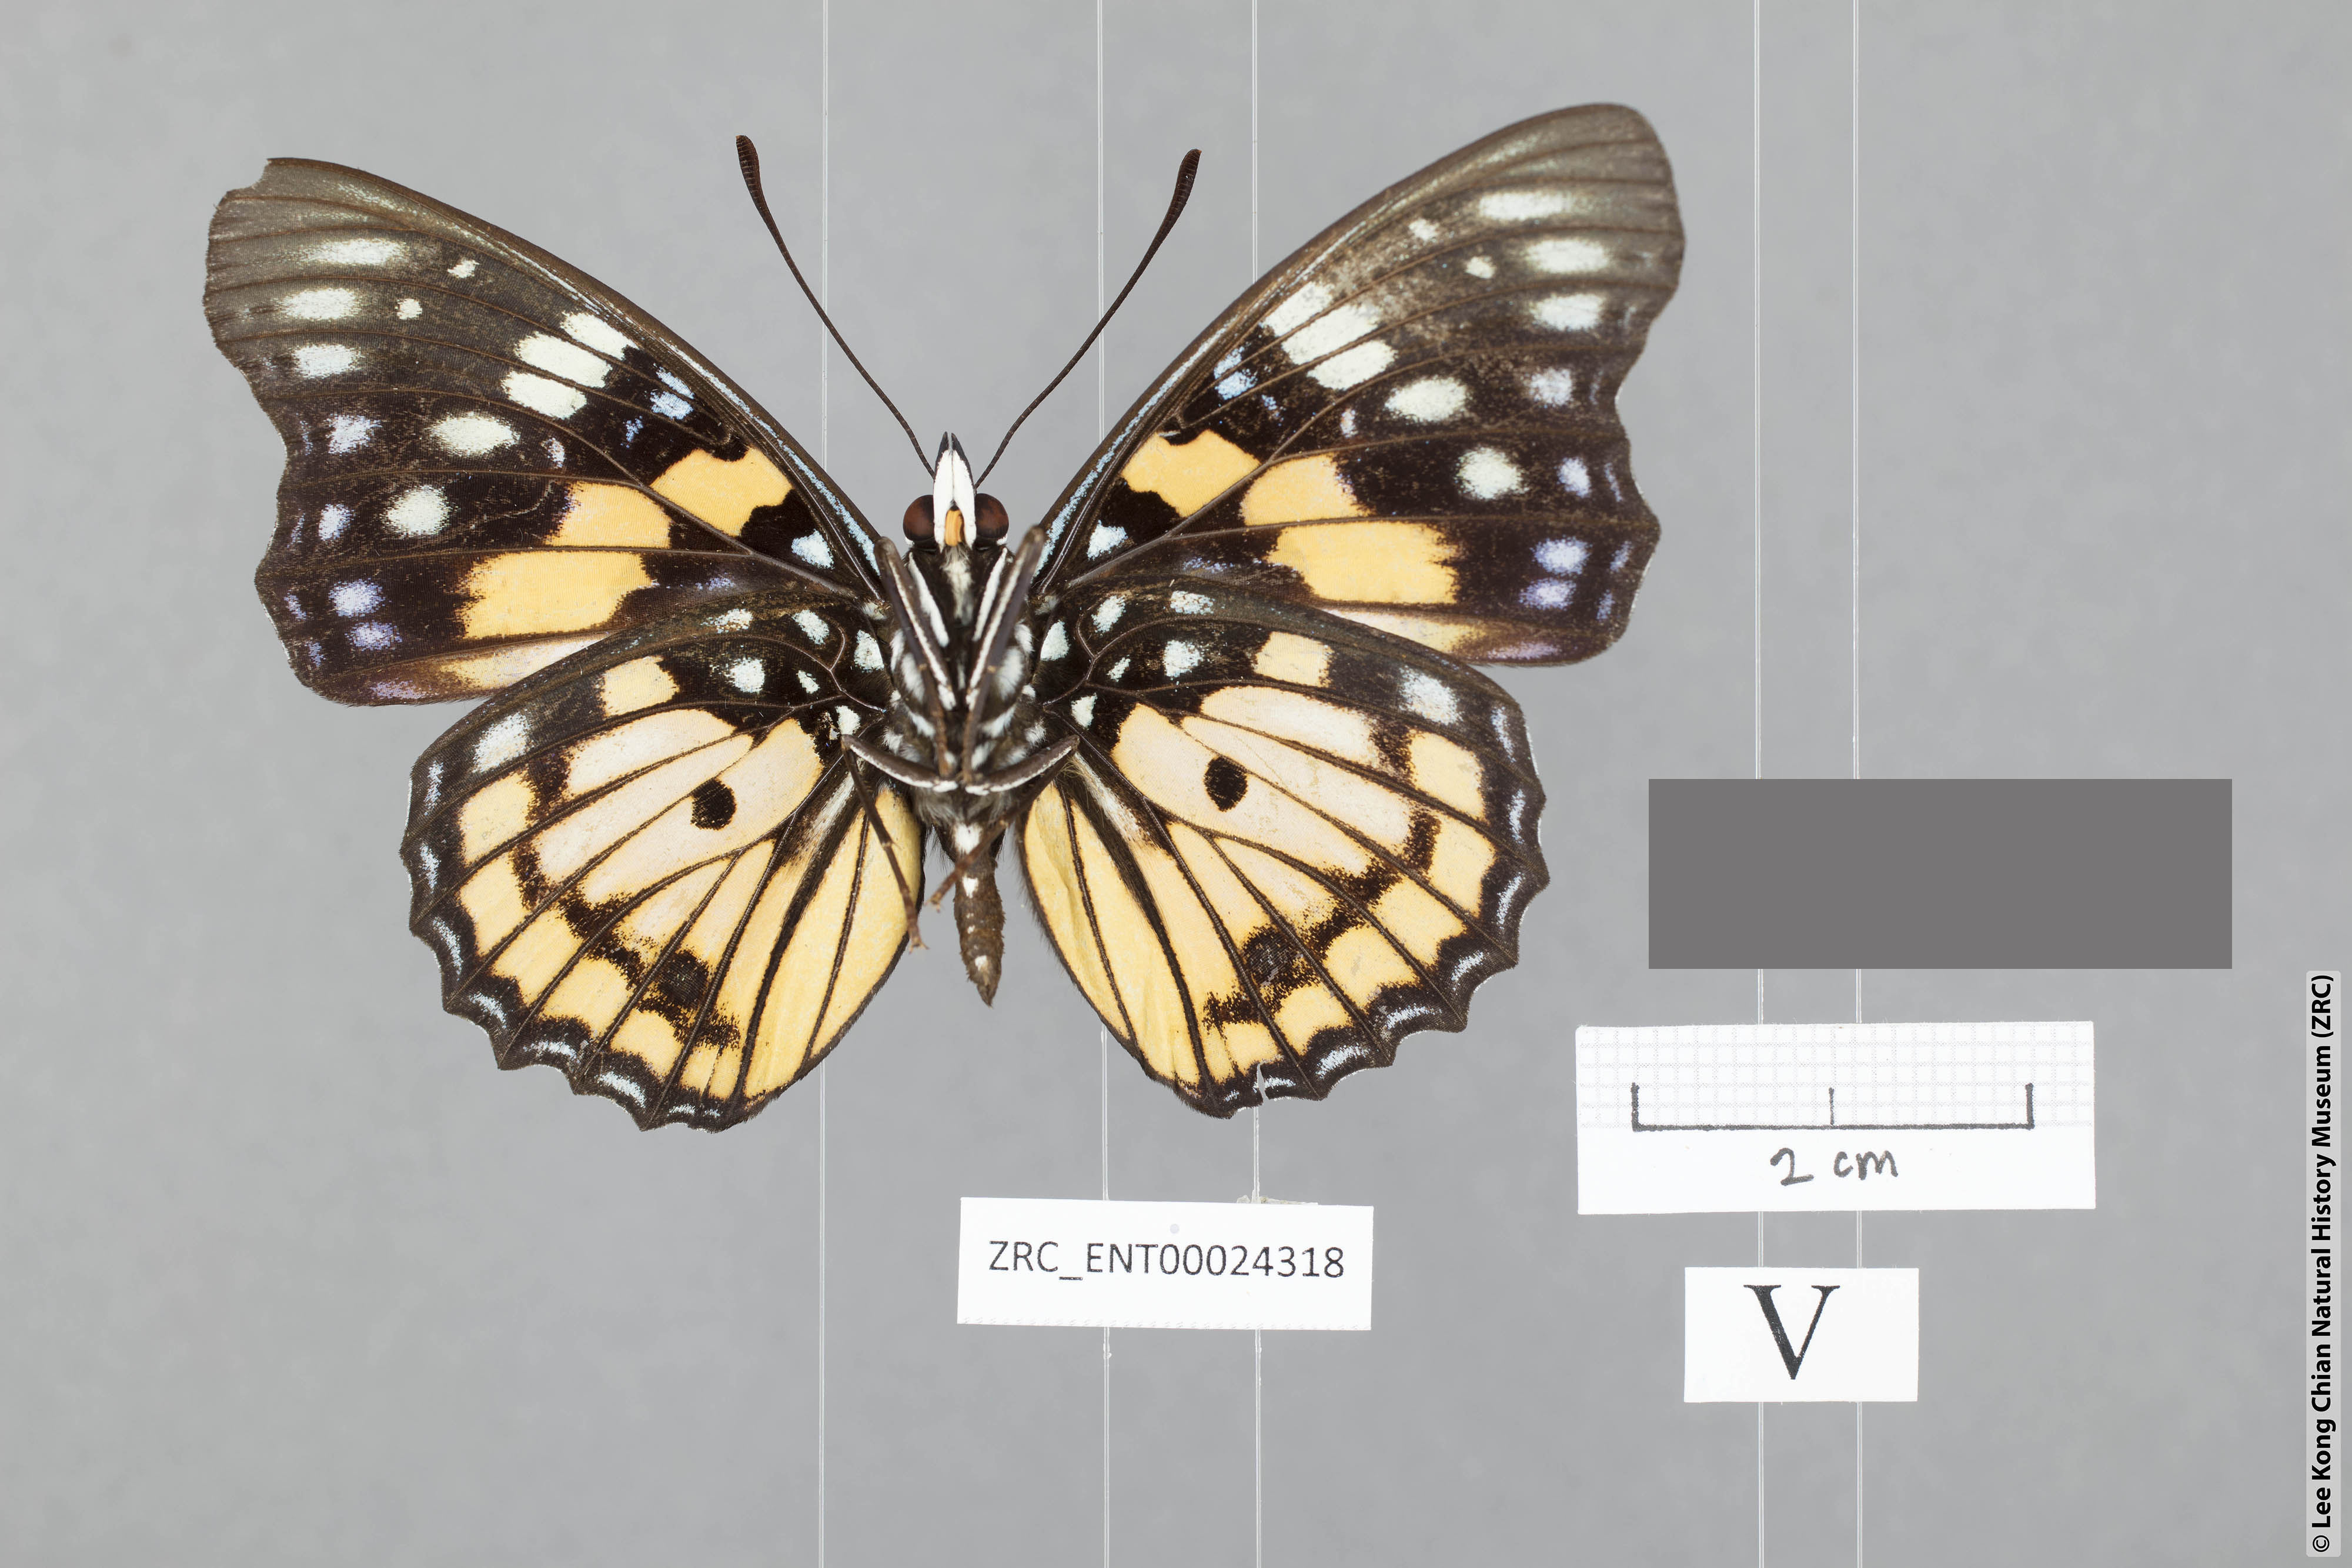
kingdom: Animalia
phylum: Arthropoda
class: Insecta
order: Lepidoptera
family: Nymphalidae
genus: Sephisa
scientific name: Sephisa chandra
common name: Eastern courtier
